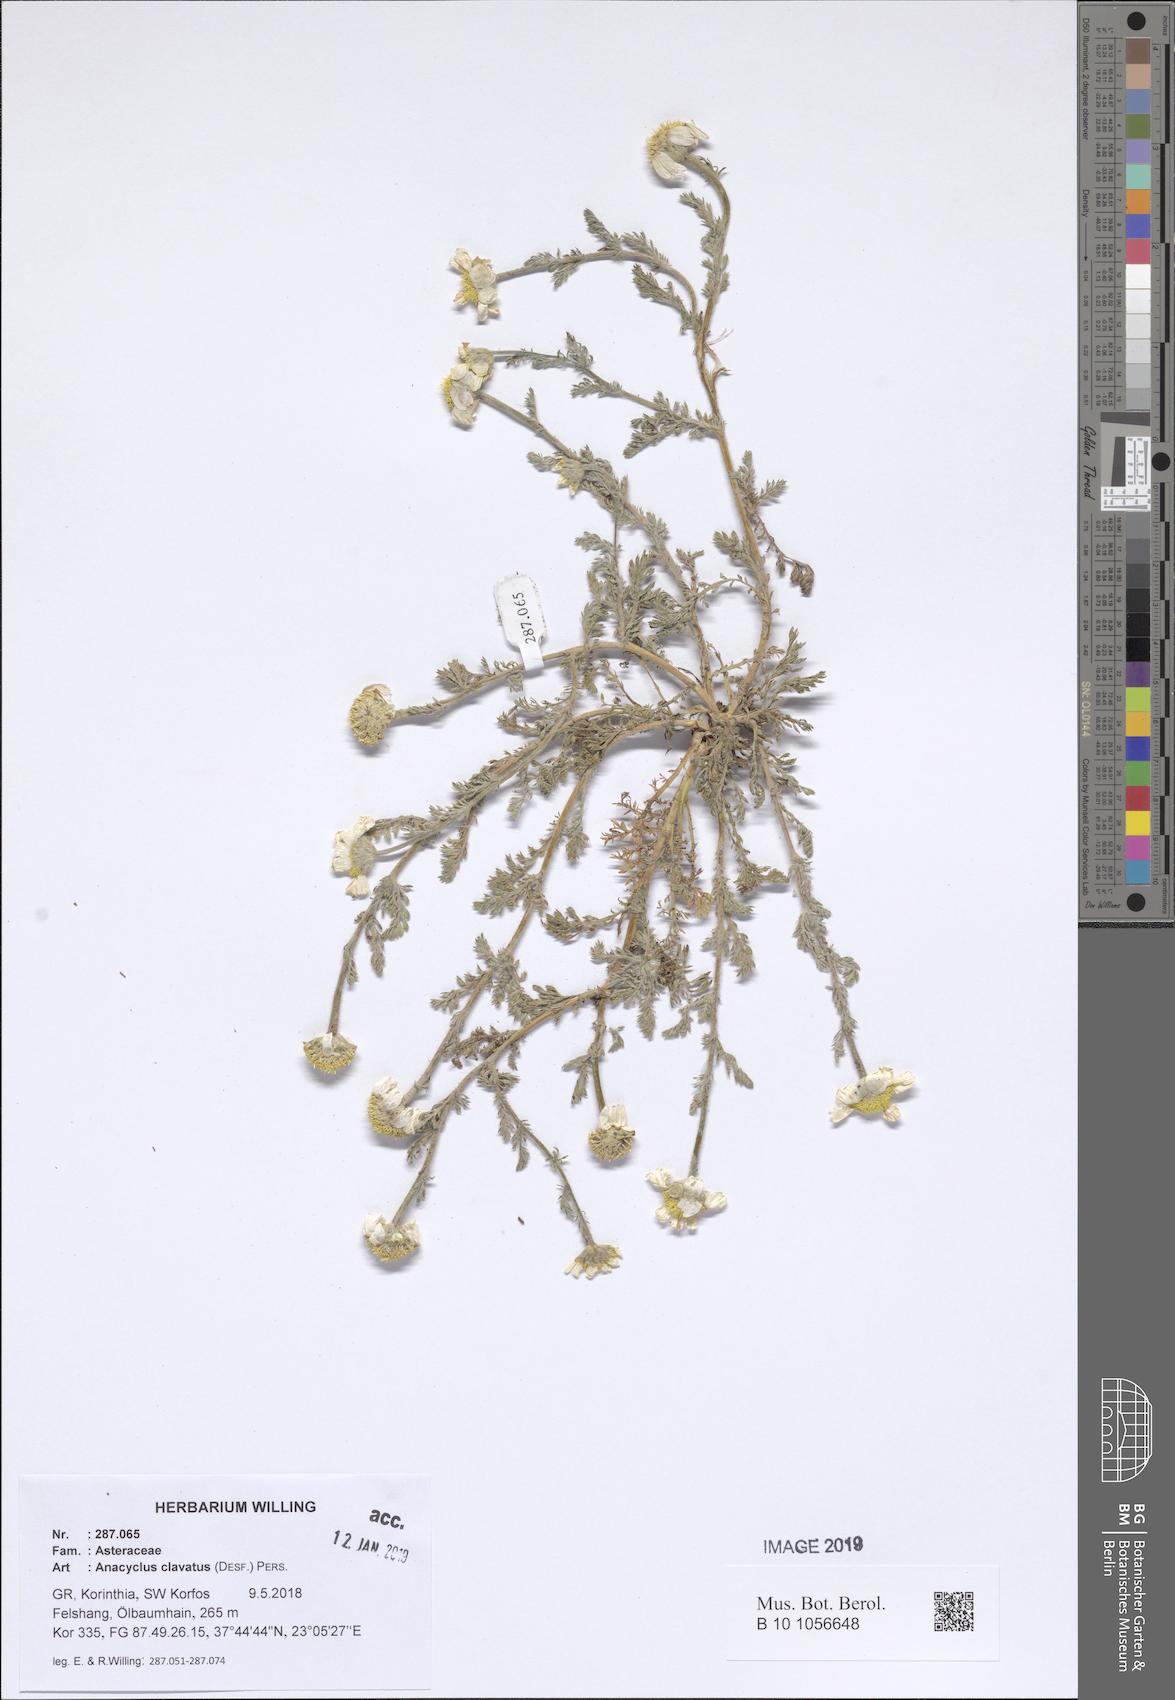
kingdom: Plantae
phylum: Tracheophyta
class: Magnoliopsida
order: Asterales
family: Asteraceae
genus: Anacyclus
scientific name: Anacyclus clavatus
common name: Whitebuttons
